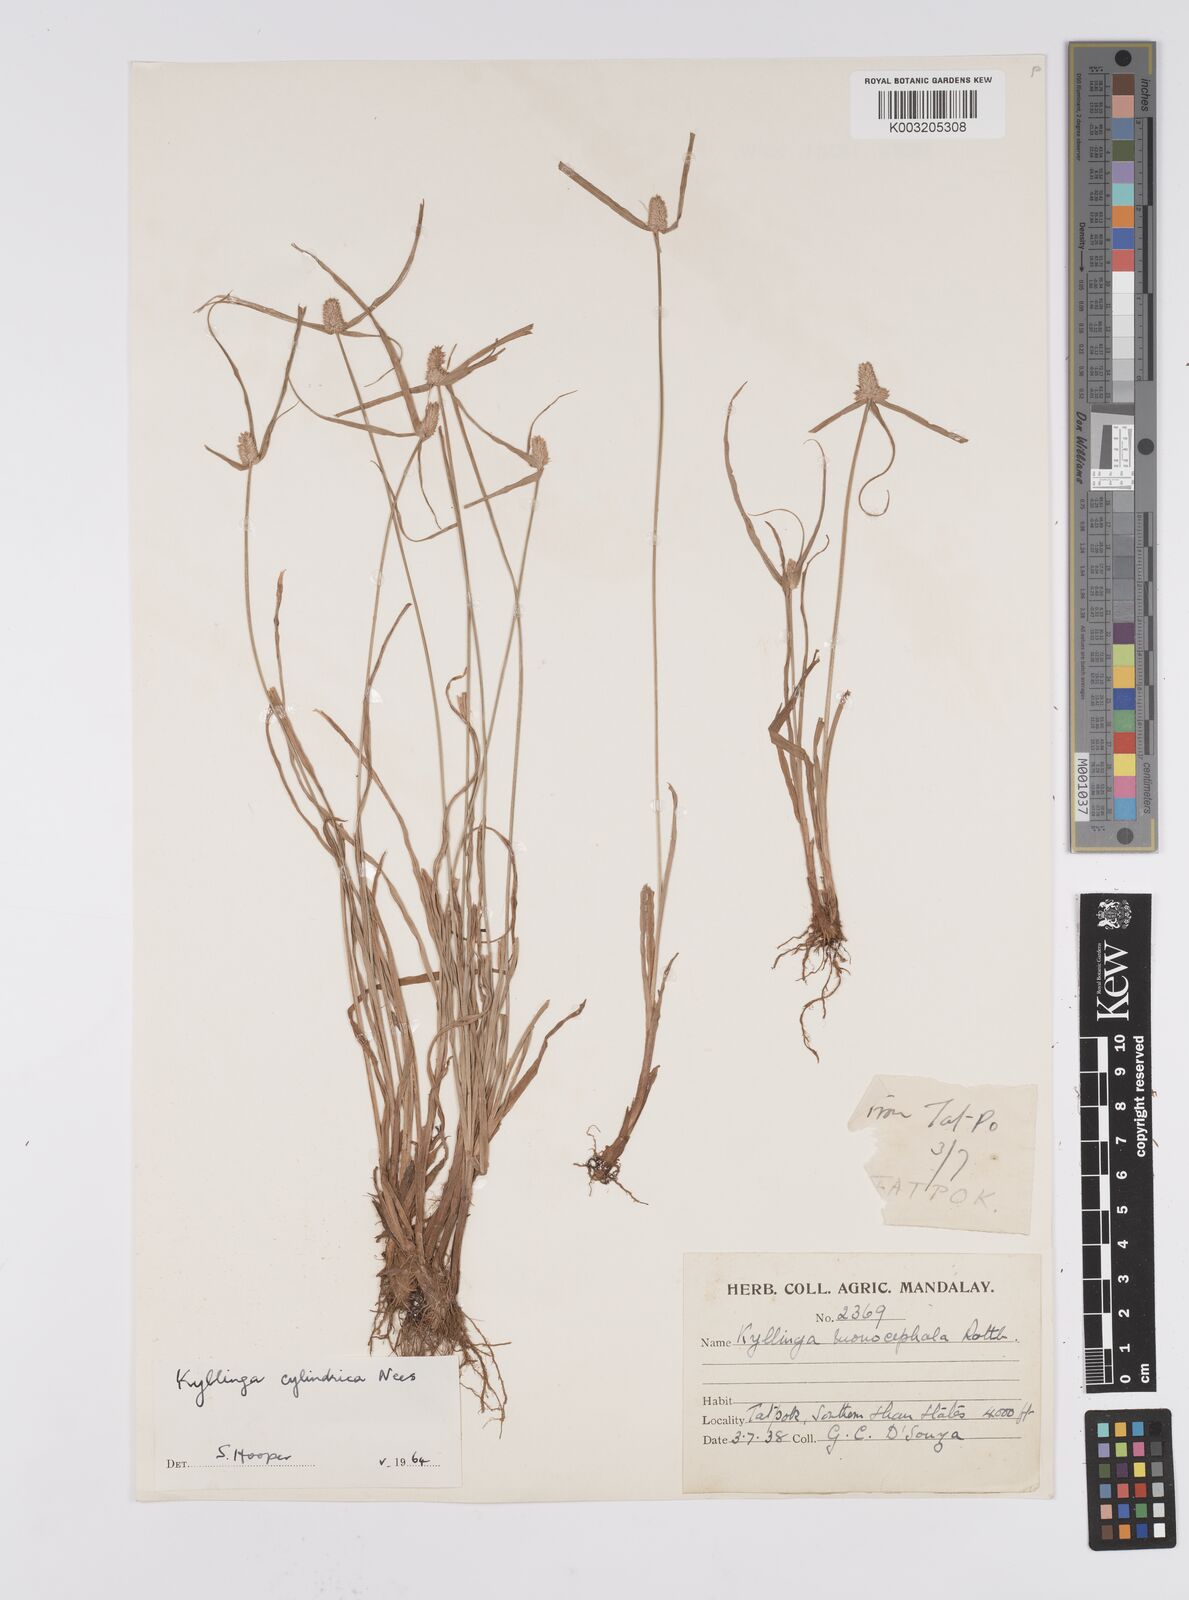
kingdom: Plantae
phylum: Tracheophyta
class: Liliopsida
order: Poales
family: Cyperaceae
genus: Cyperus
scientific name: Cyperus
